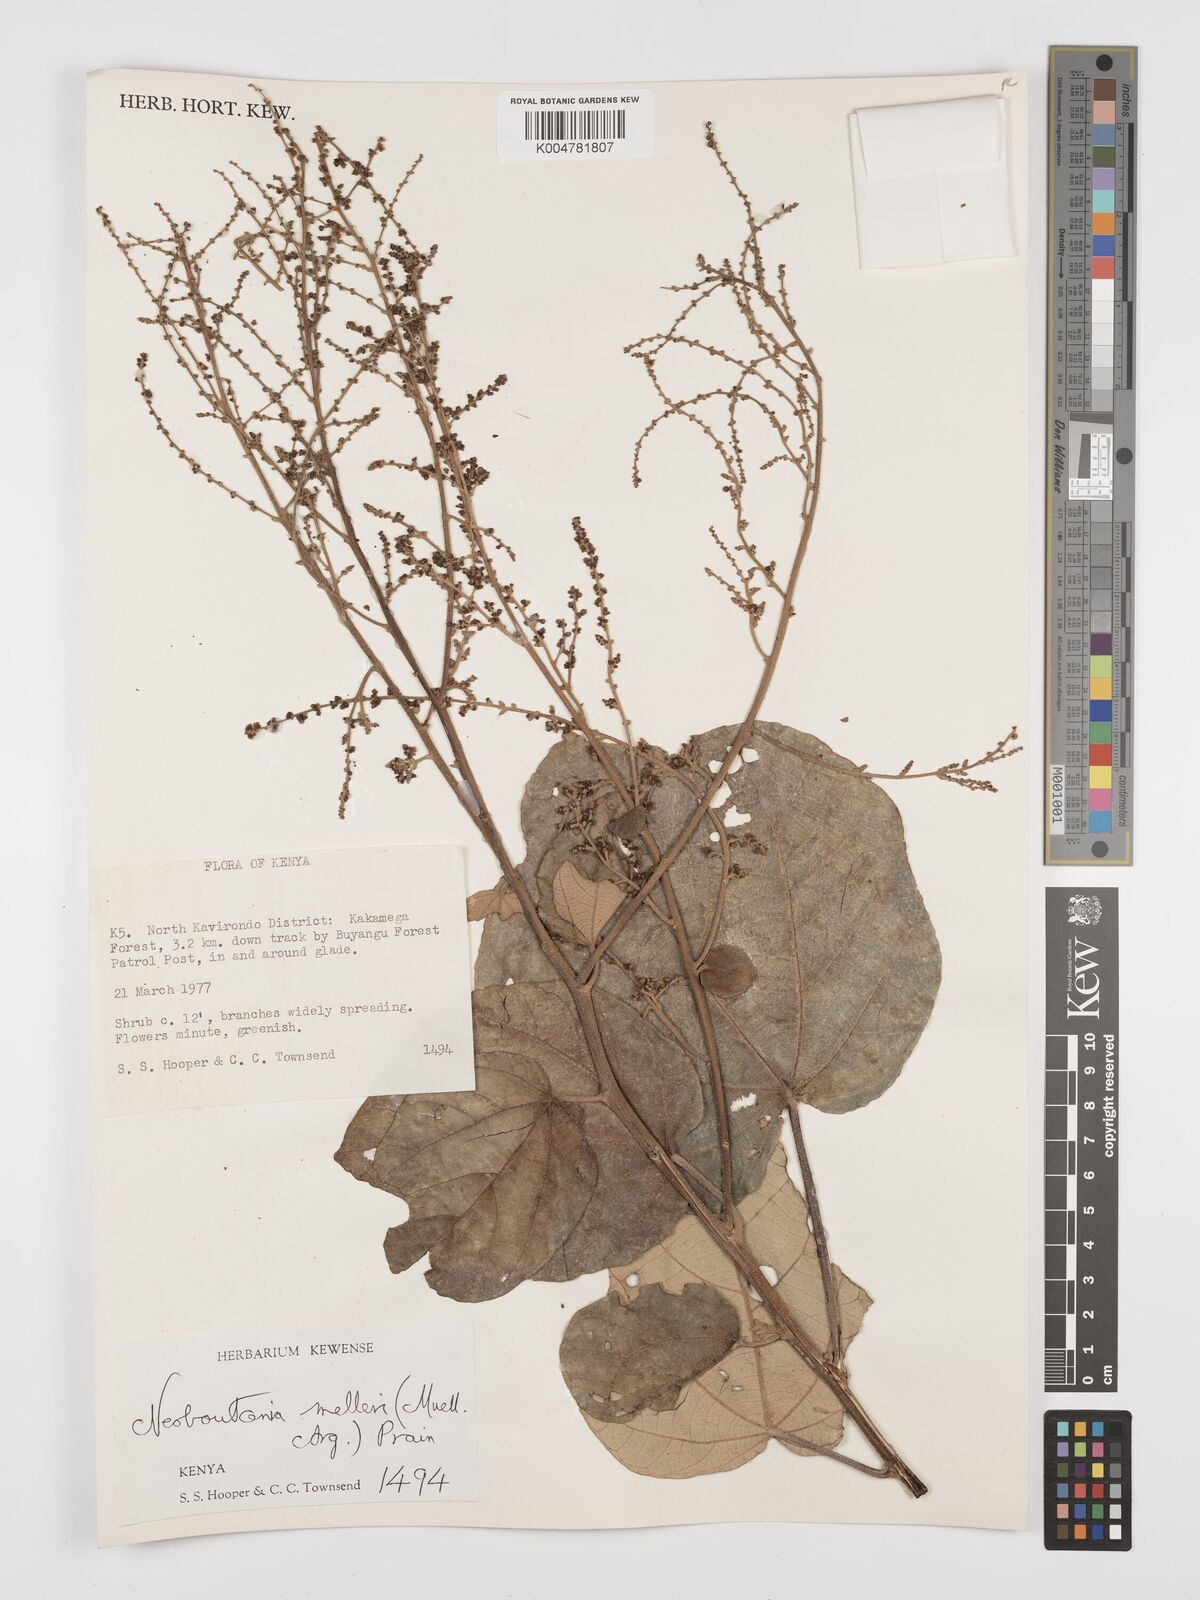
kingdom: Plantae
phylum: Tracheophyta
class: Magnoliopsida
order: Malpighiales
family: Euphorbiaceae
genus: Neoboutonia
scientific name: Neoboutonia melleri
